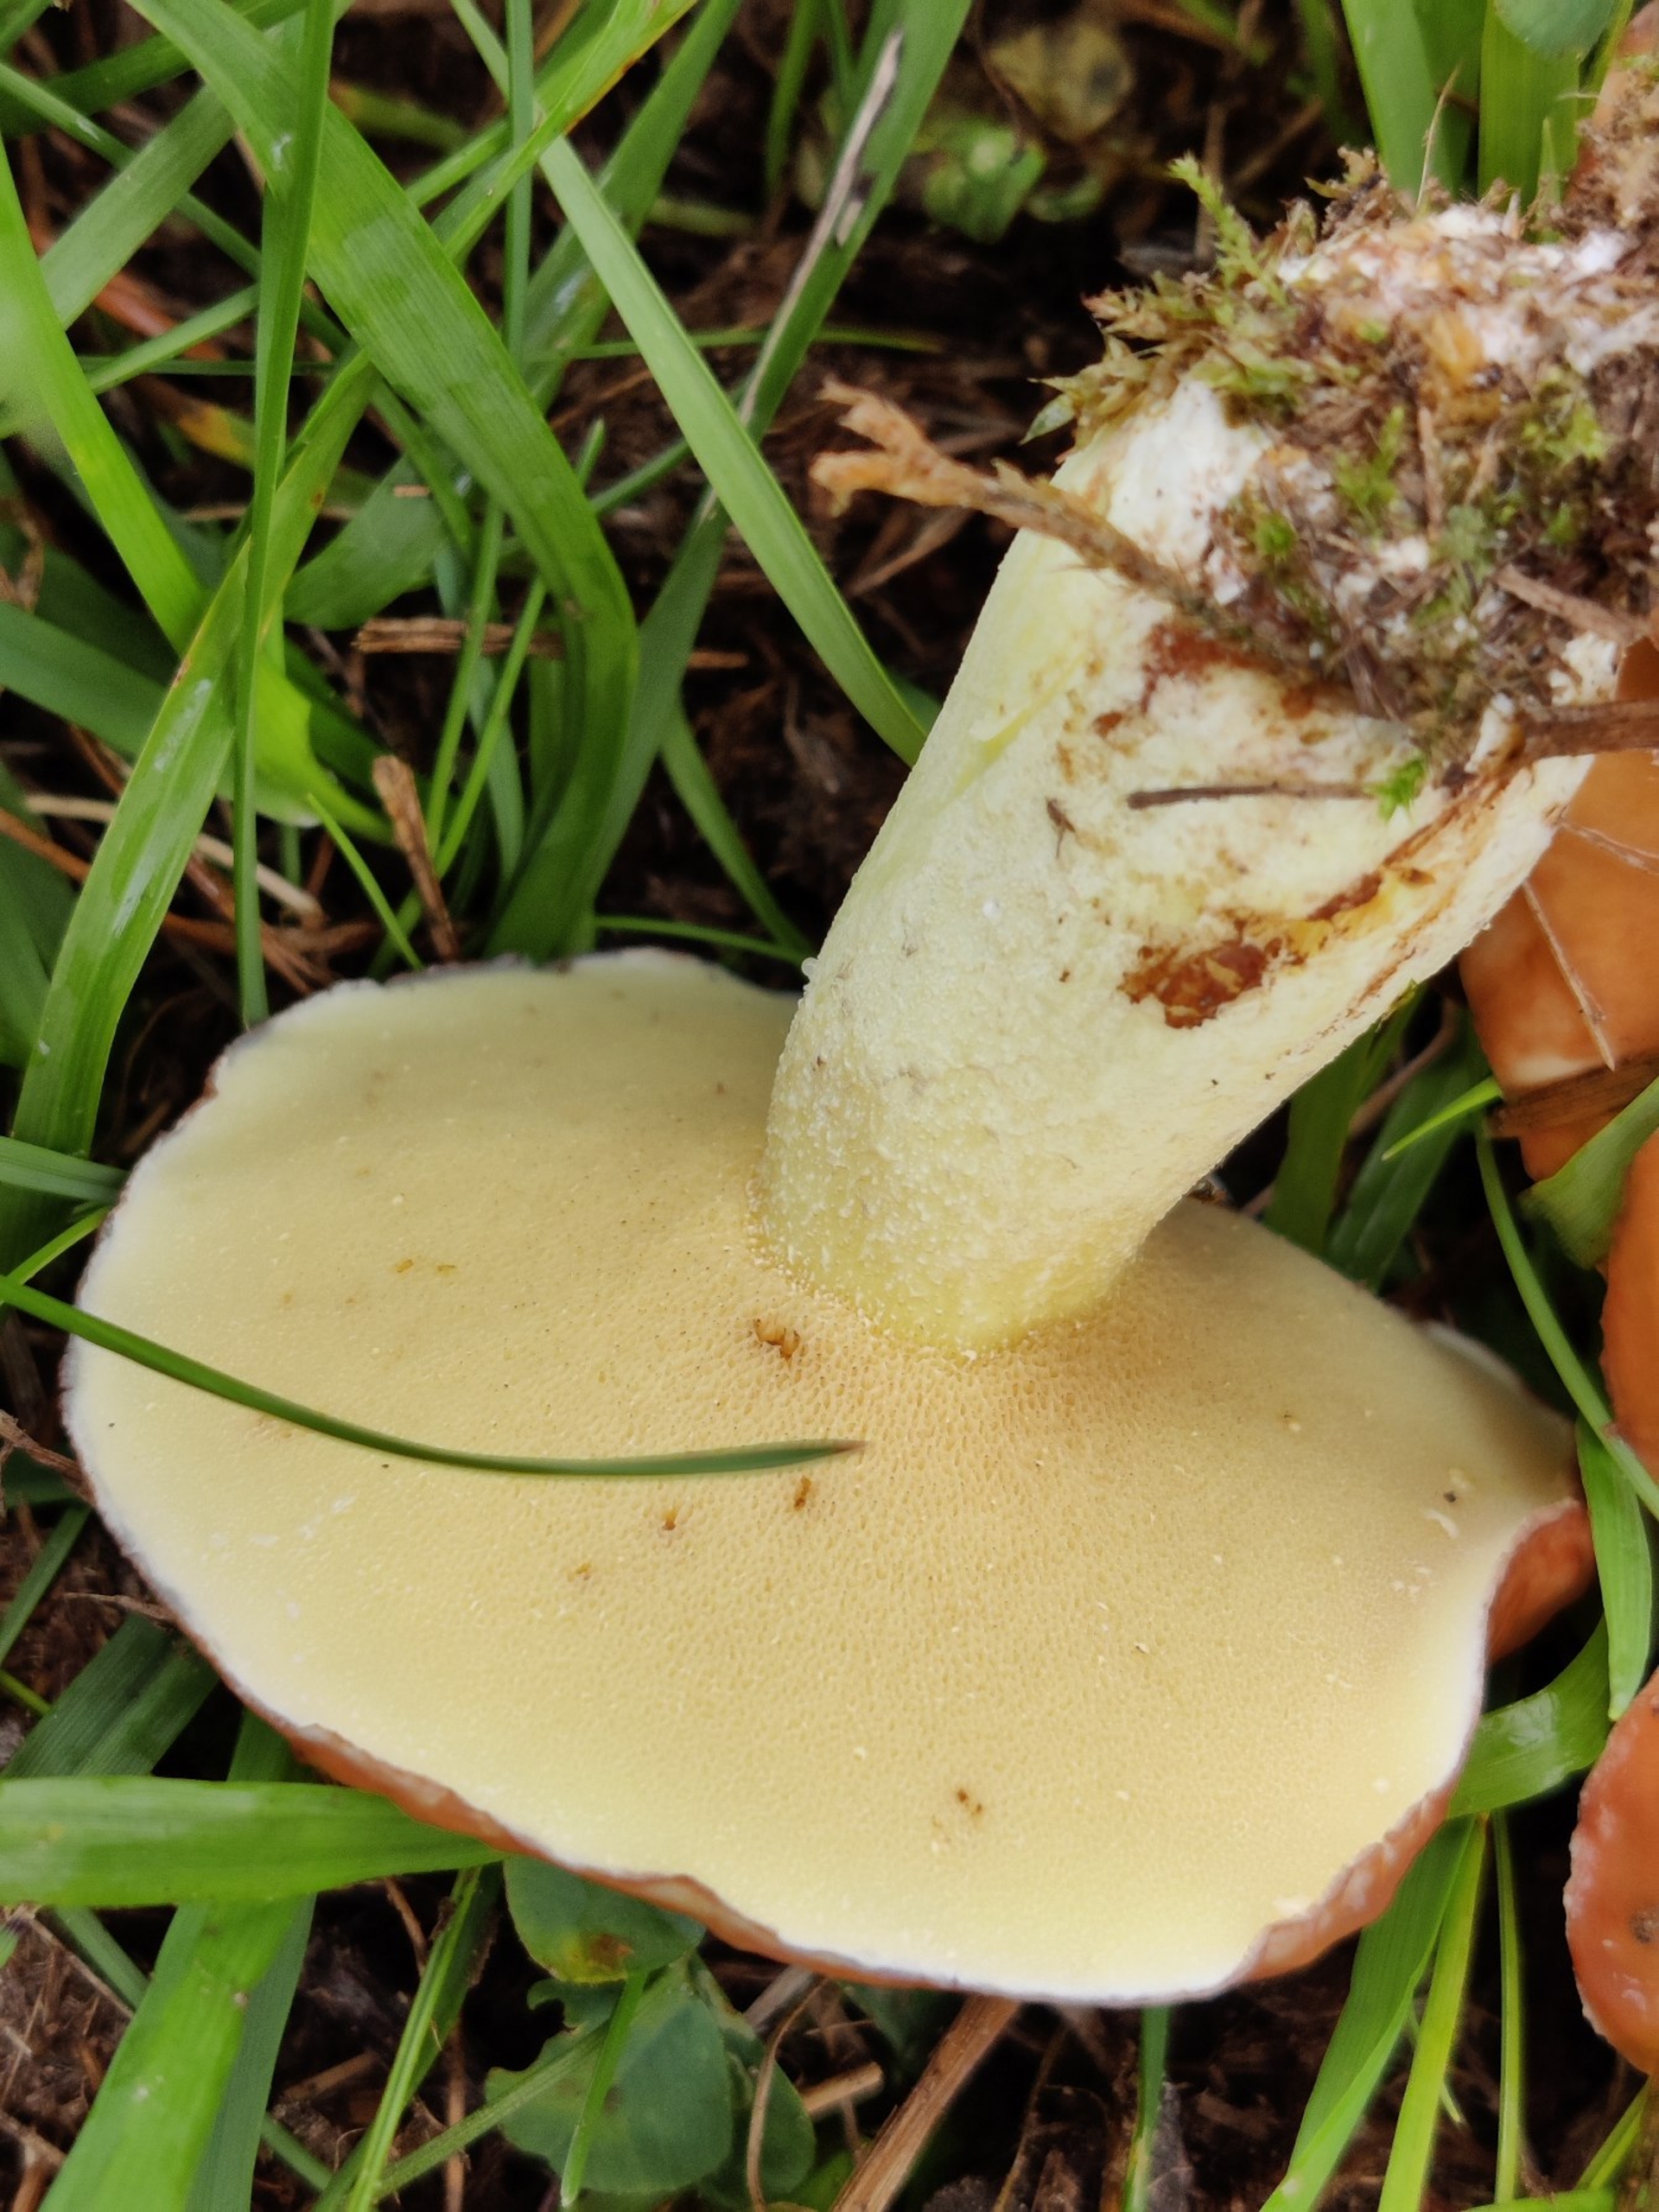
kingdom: Fungi
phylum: Basidiomycota
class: Agaricomycetes
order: Boletales
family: Suillaceae
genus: Suillus
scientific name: Suillus granulatus
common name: Kornet slimrørhat
